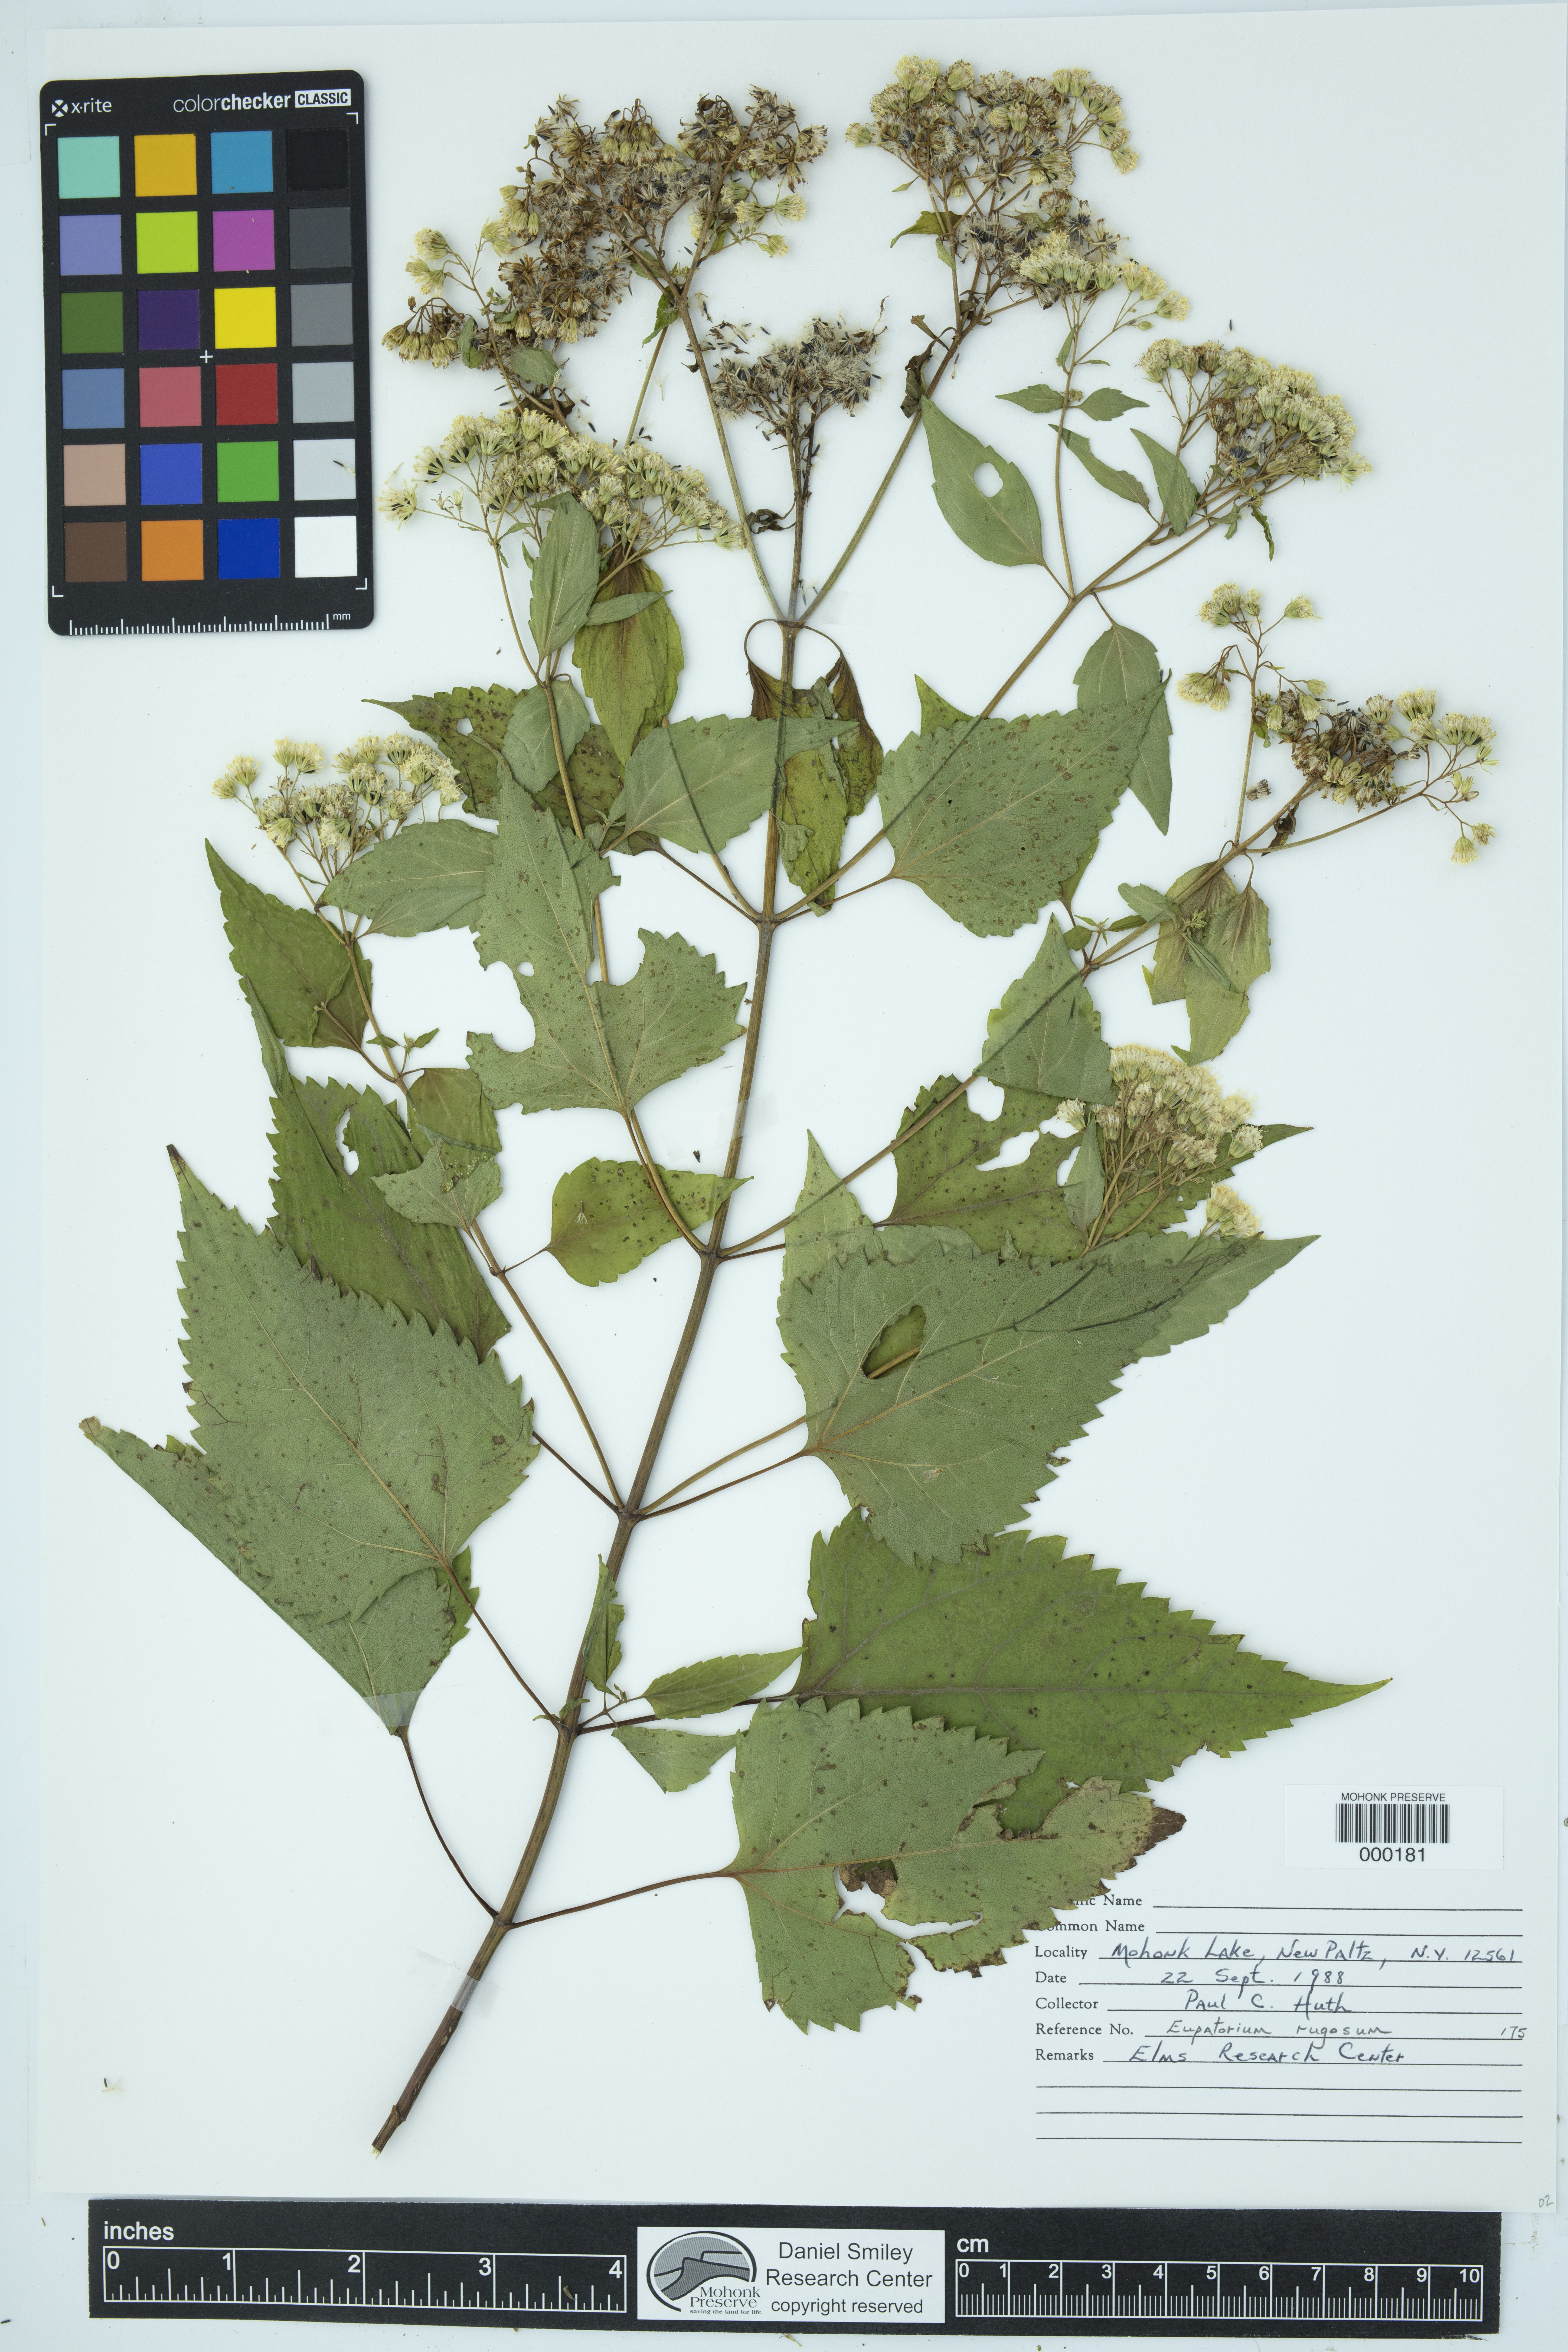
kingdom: Plantae
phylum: Tracheophyta
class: Magnoliopsida
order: Asterales
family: Asteraceae
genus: Ageratina
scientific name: Ageratina altissima
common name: White snakeroot
